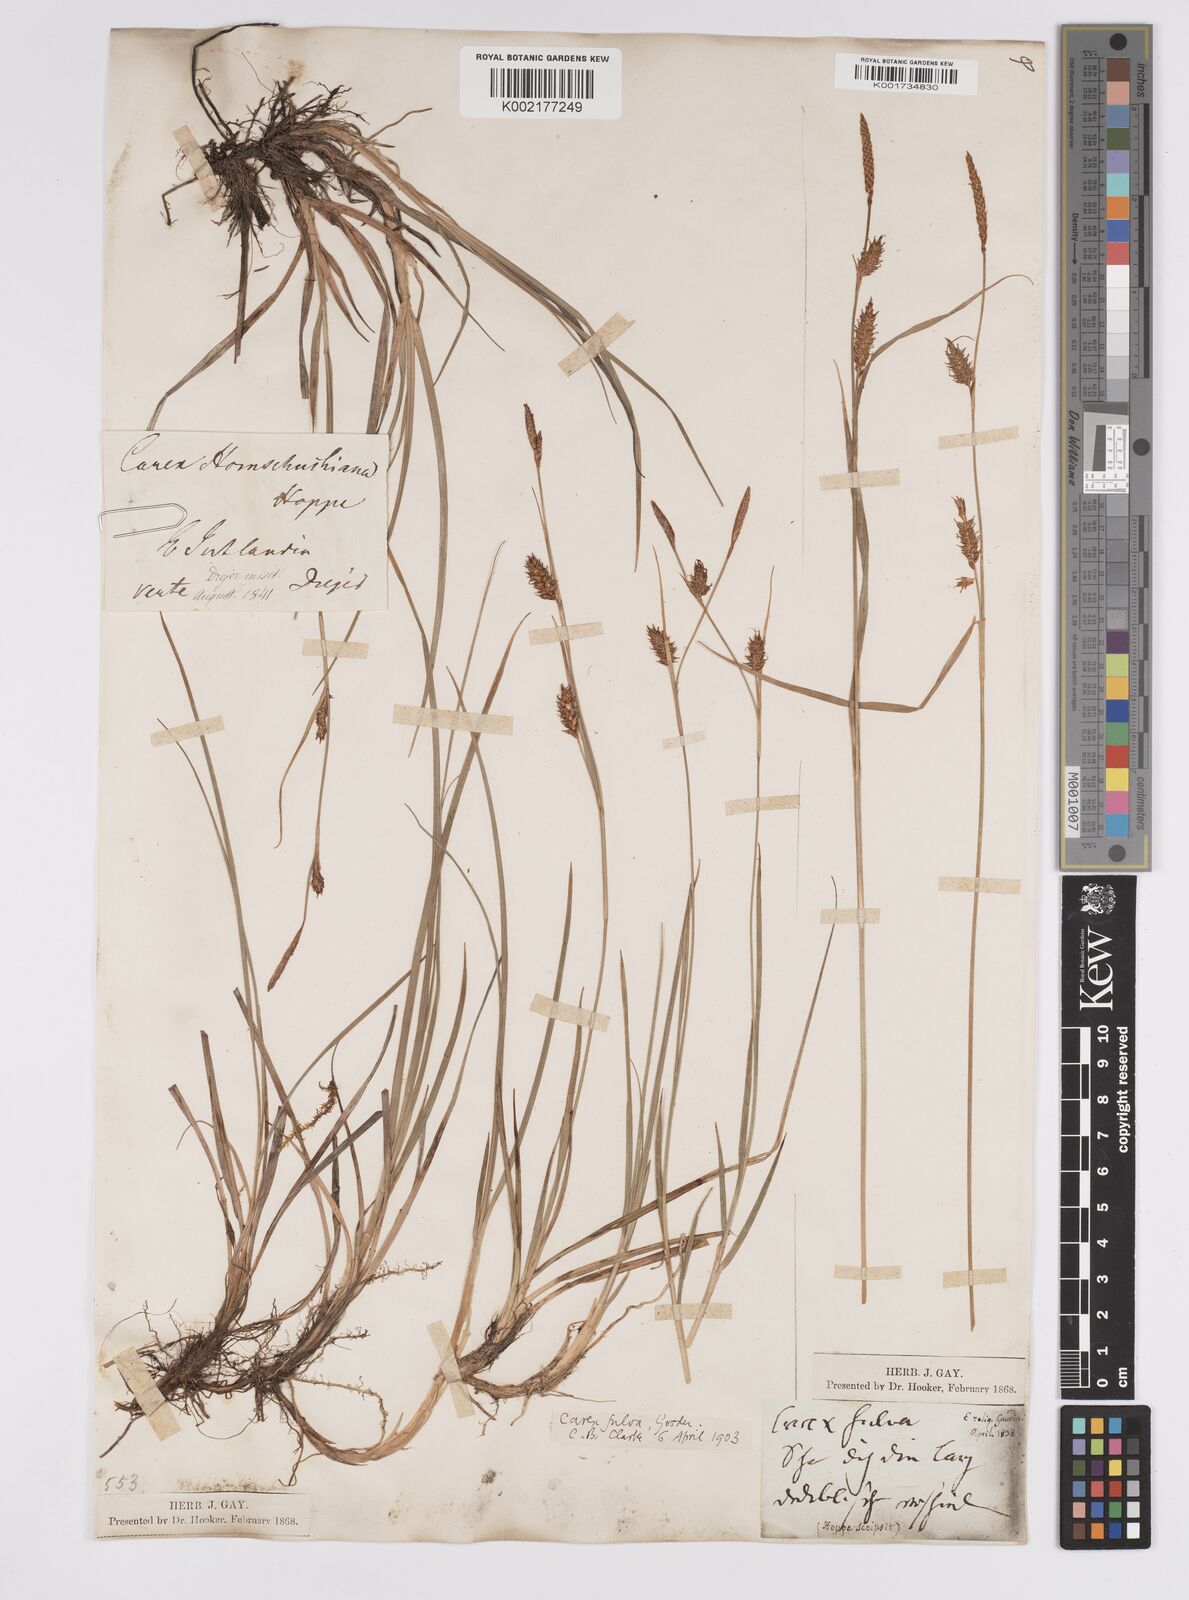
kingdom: Plantae
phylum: Tracheophyta
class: Liliopsida
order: Poales
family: Cyperaceae
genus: Carex
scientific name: Carex hostiana
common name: Tawny sedge
